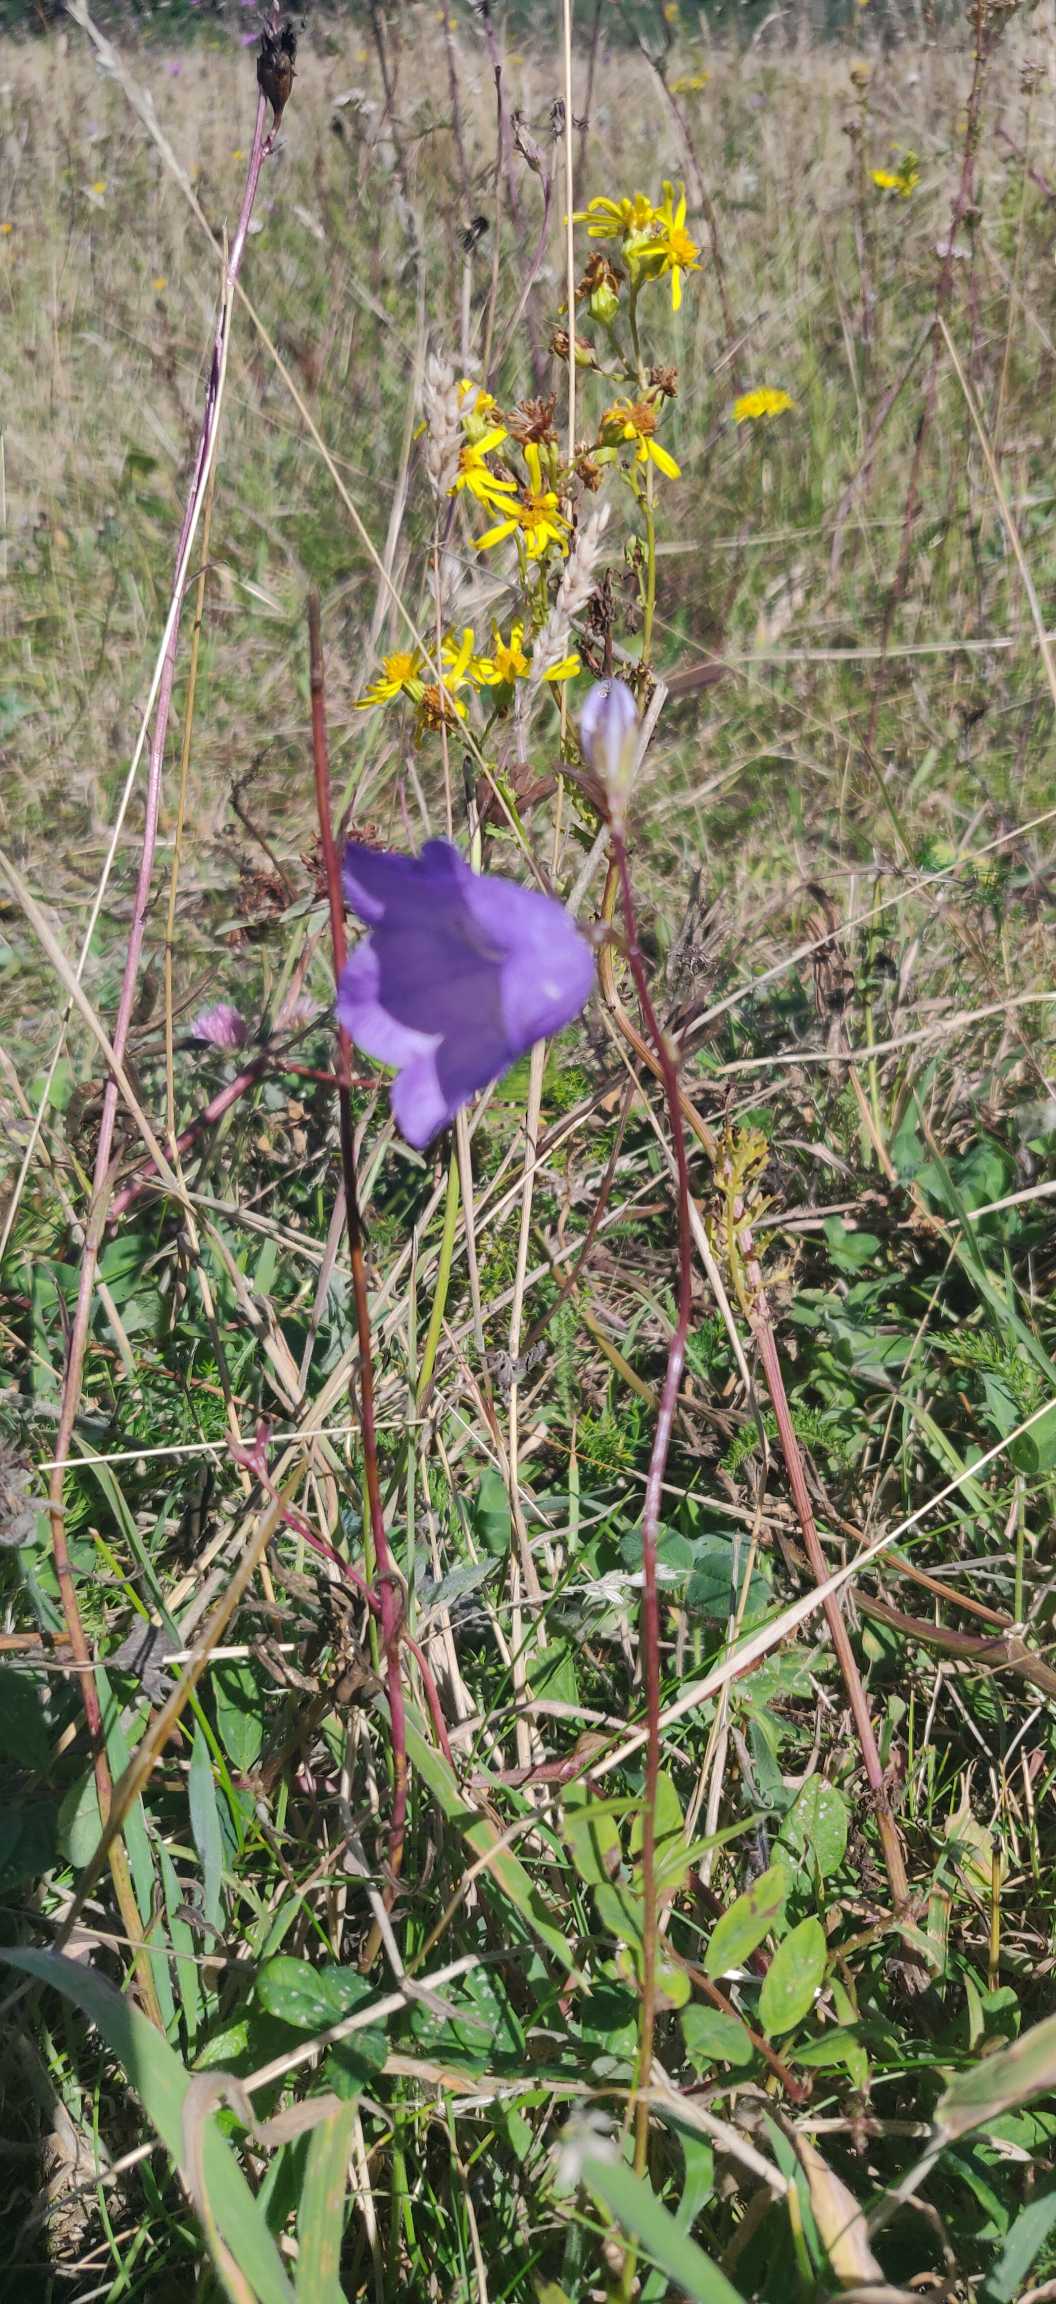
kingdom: Plantae
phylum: Tracheophyta
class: Magnoliopsida
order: Asterales
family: Campanulaceae
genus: Campanula
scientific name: Campanula persicifolia
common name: Smalbladet klokke
